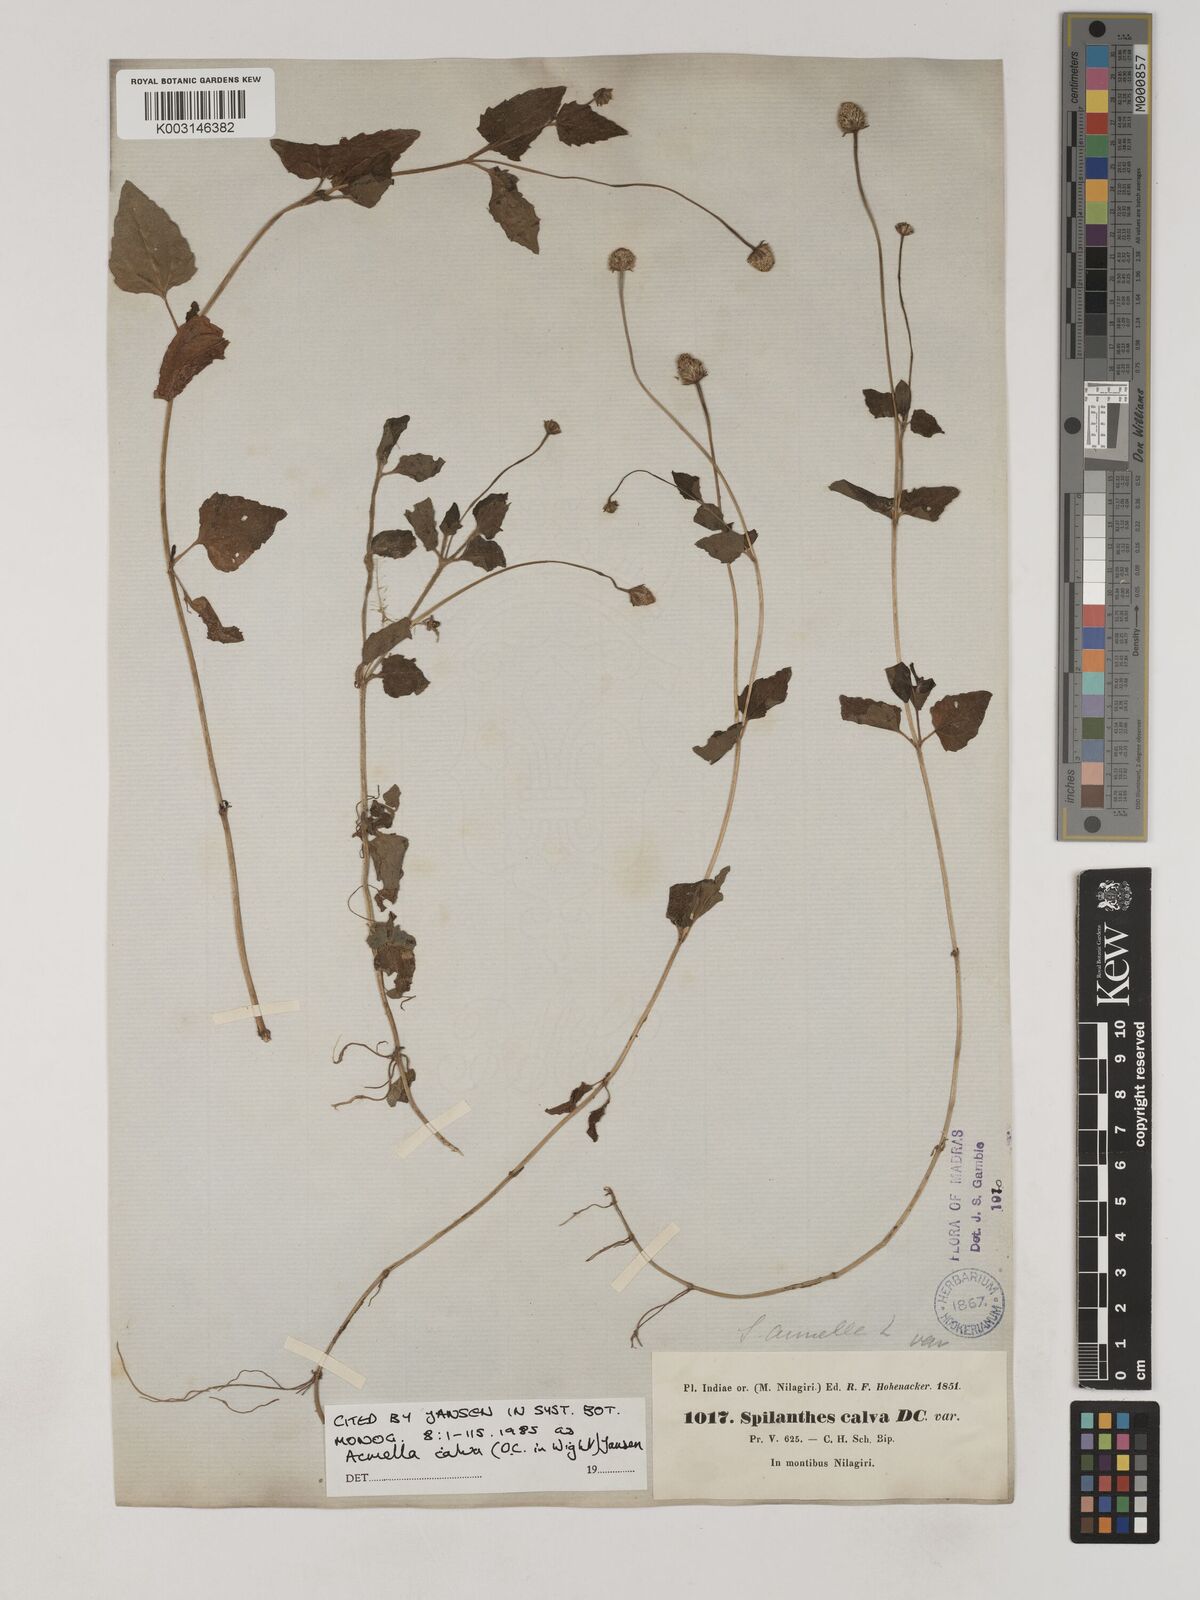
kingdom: Plantae
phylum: Tracheophyta
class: Magnoliopsida
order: Asterales
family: Asteraceae
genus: Acmella
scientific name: Acmella calva
